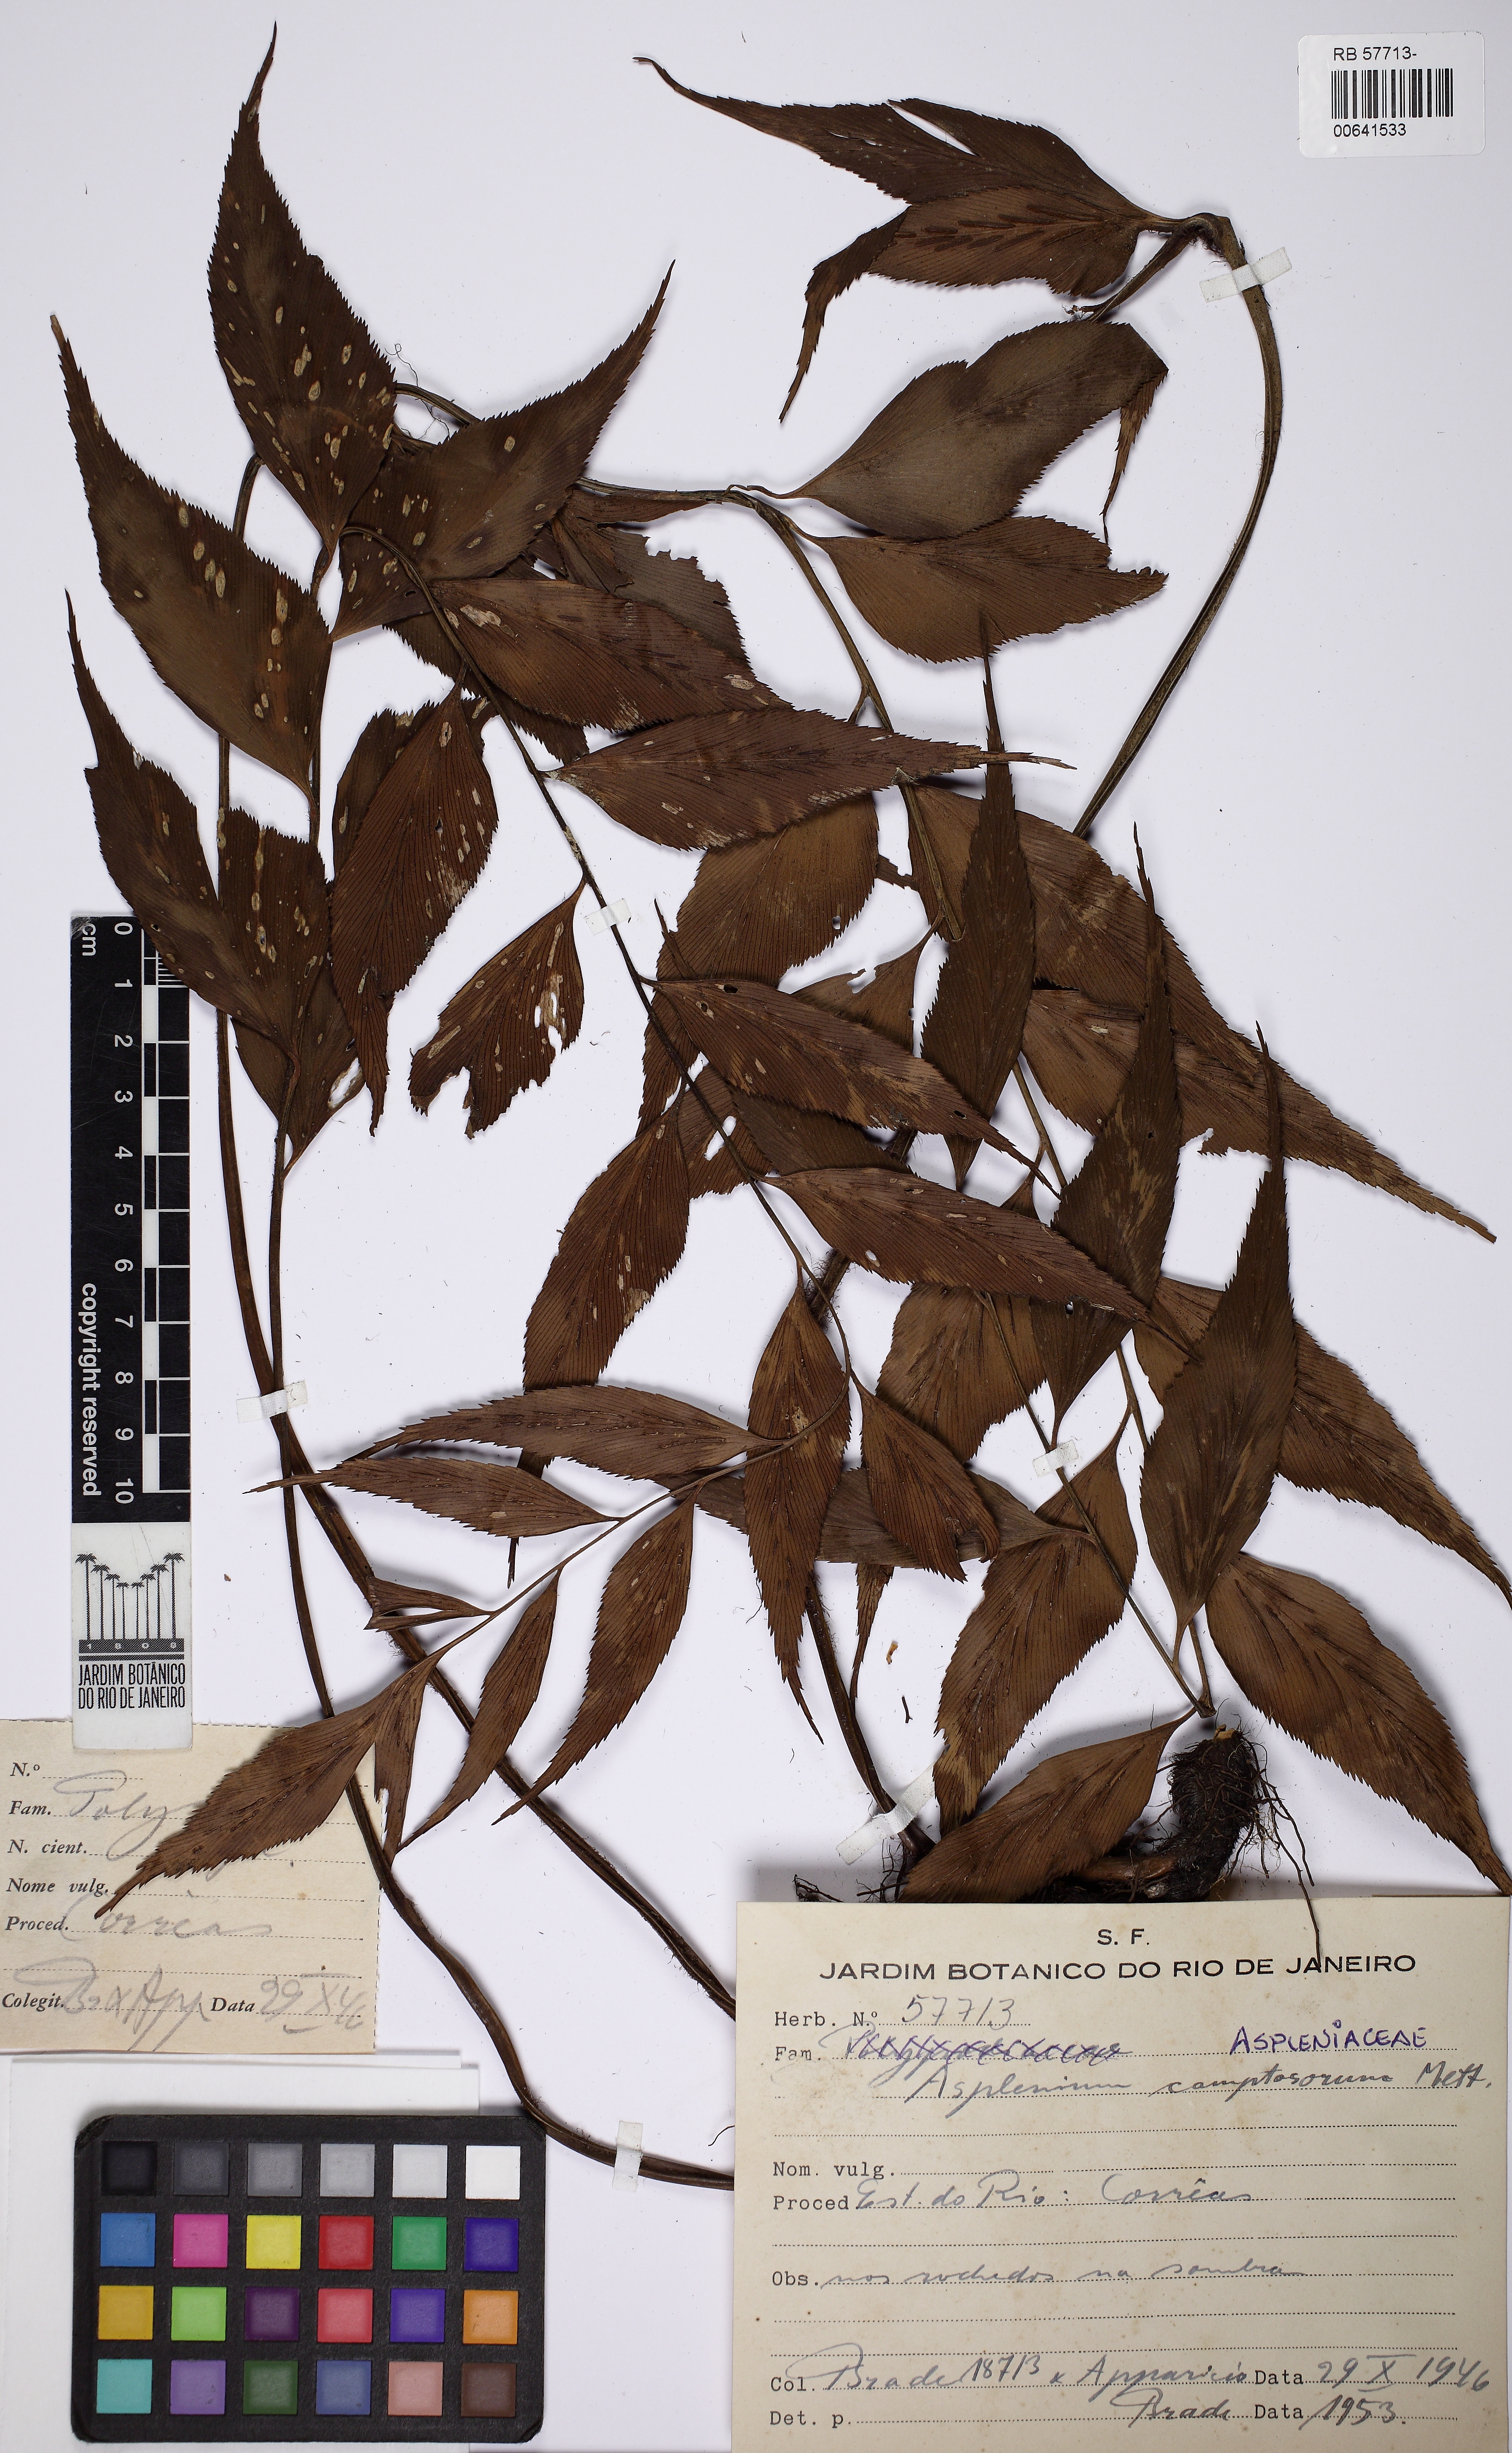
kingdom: Plantae
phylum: Tracheophyta
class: Polypodiopsida
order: Polypodiales
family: Aspleniaceae
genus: Asplenium
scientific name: Asplenium serra
